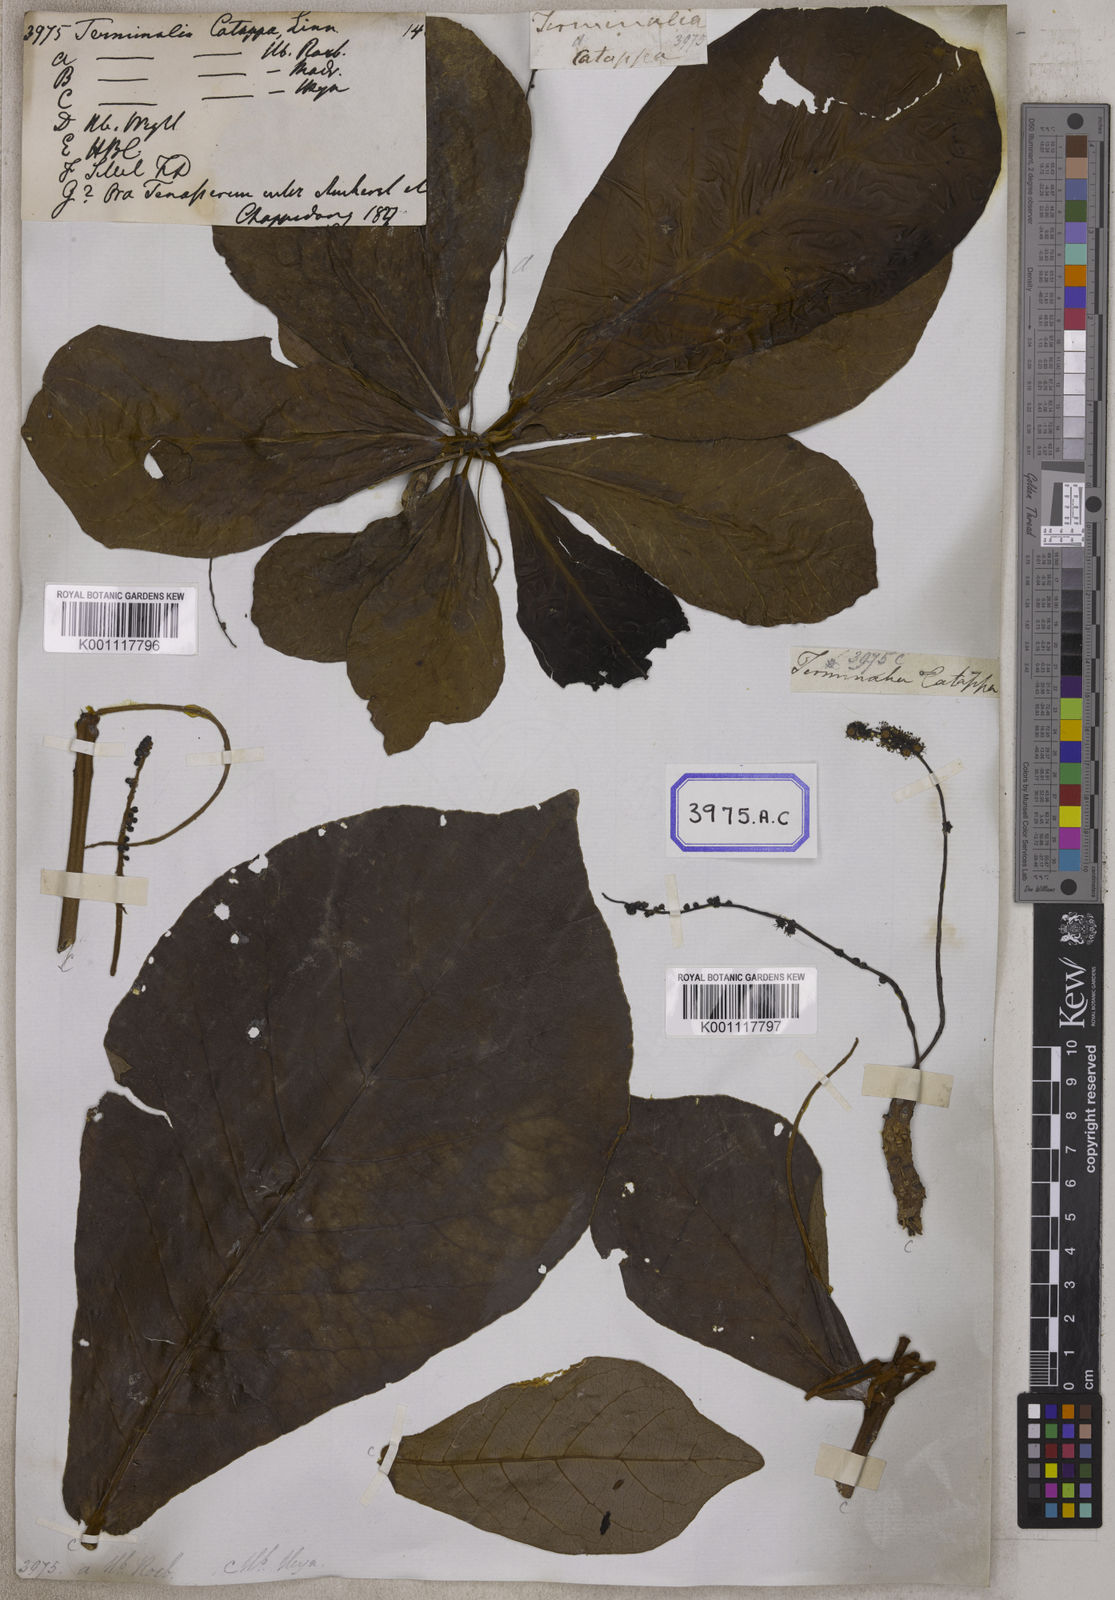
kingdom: Plantae
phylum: Tracheophyta
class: Magnoliopsida
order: Myrtales
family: Combretaceae
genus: Terminalia
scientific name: Terminalia catappa
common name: Tropical almond
